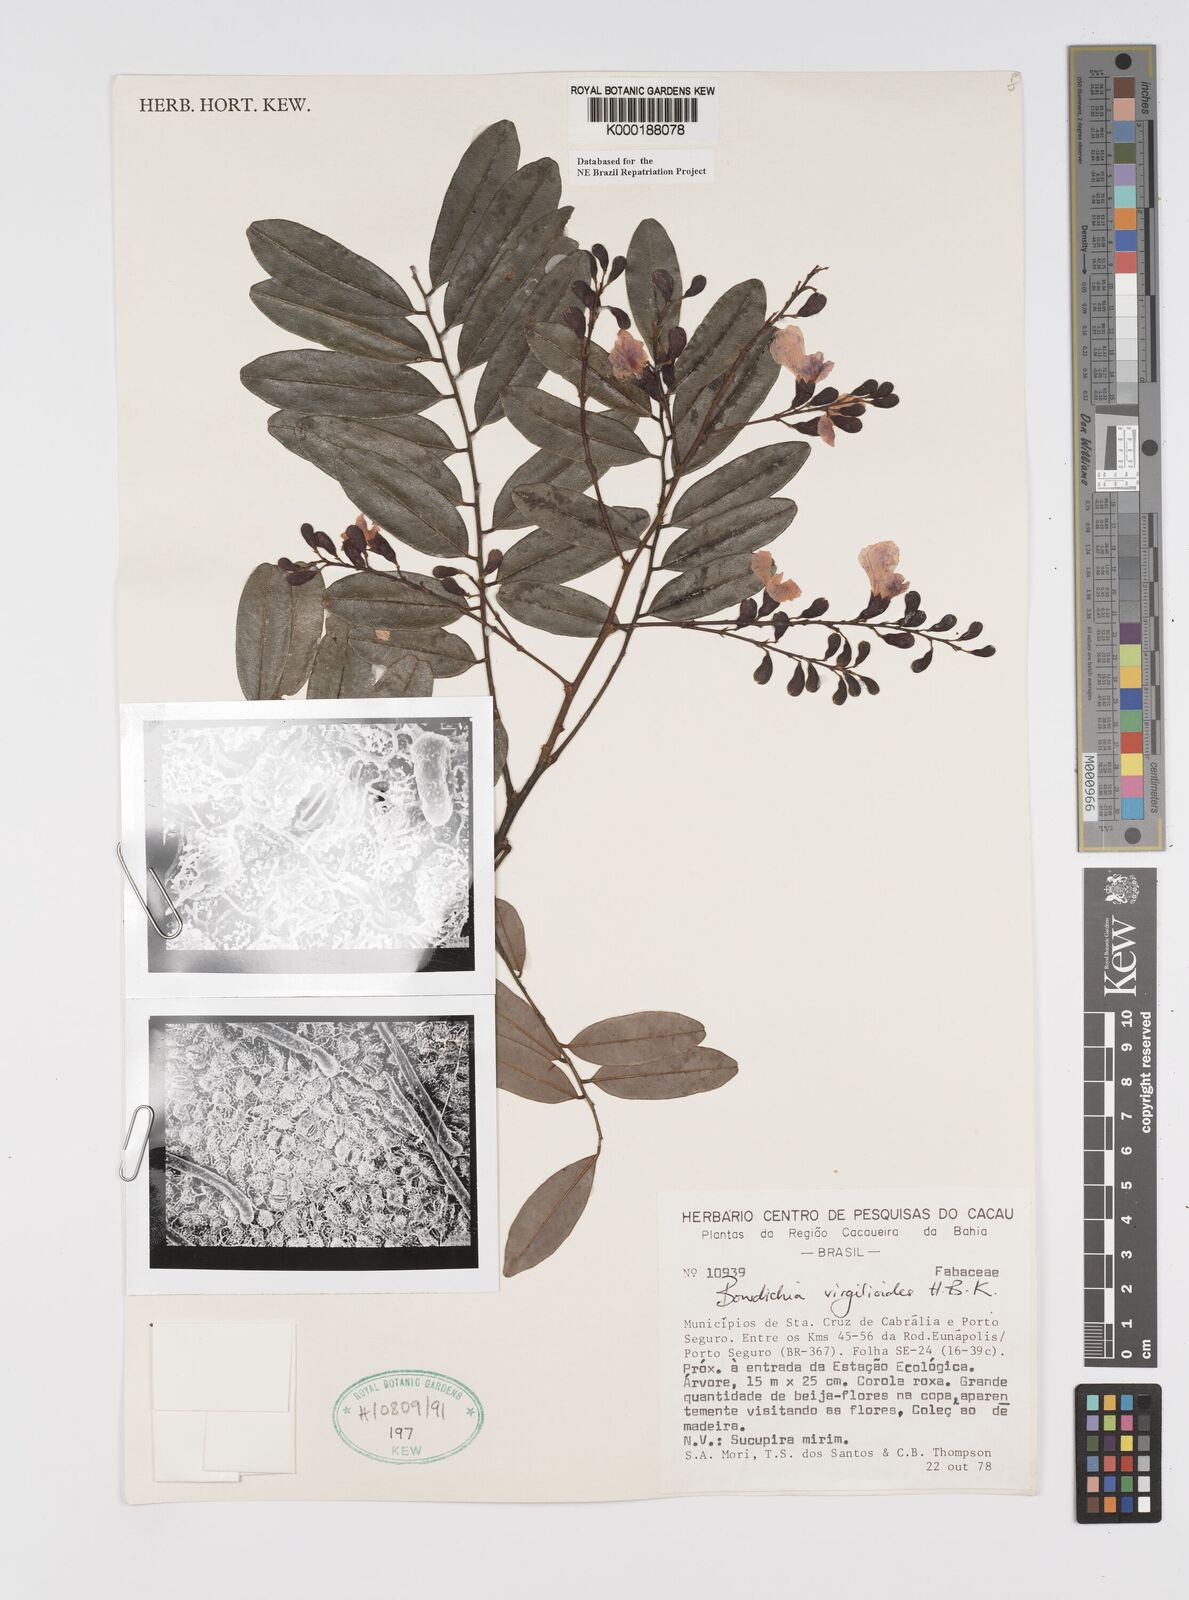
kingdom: Plantae
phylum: Tracheophyta
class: Magnoliopsida
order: Fabales
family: Fabaceae
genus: Bowdichia
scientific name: Bowdichia virgilioides
